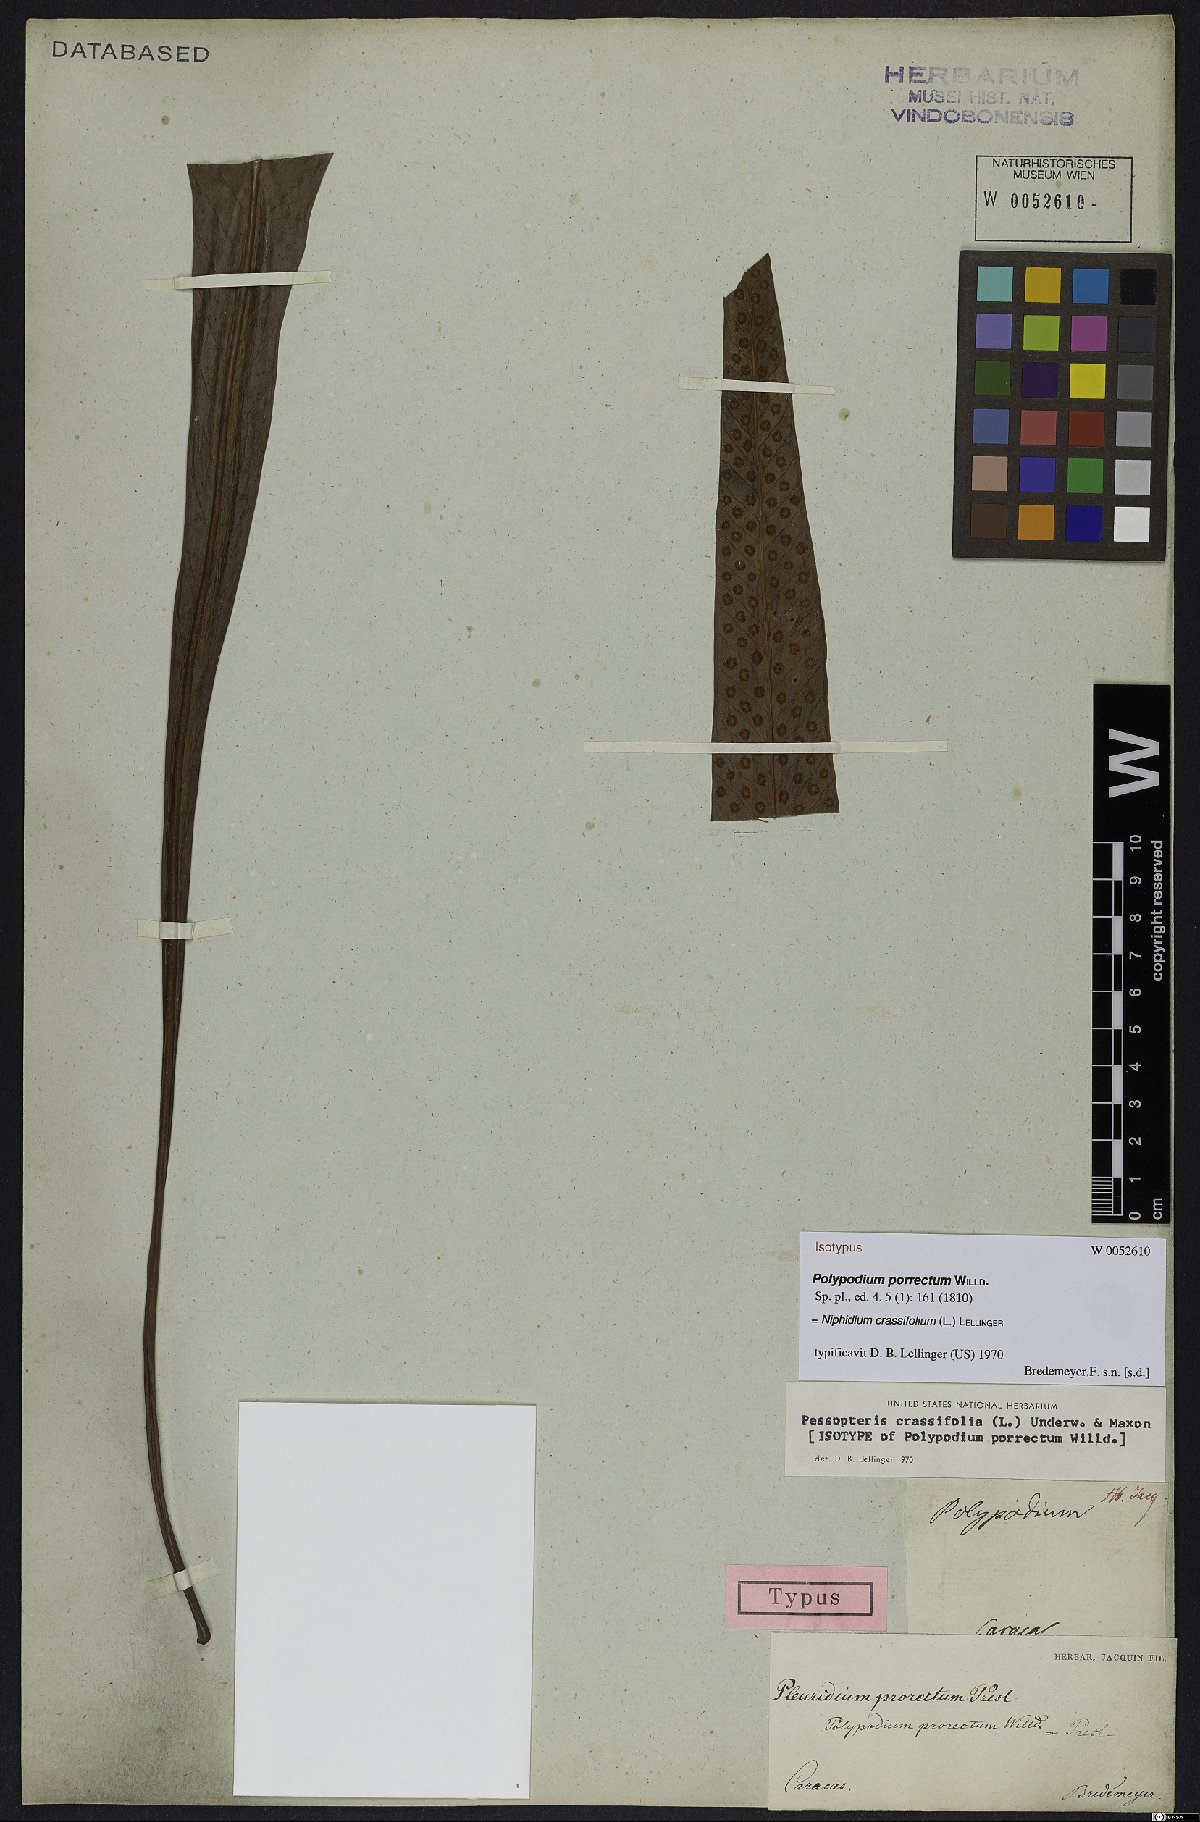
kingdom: Plantae
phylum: Tracheophyta
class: Polypodiopsida
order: Polypodiales
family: Polypodiaceae
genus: Niphidium
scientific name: Niphidium crassifolium
